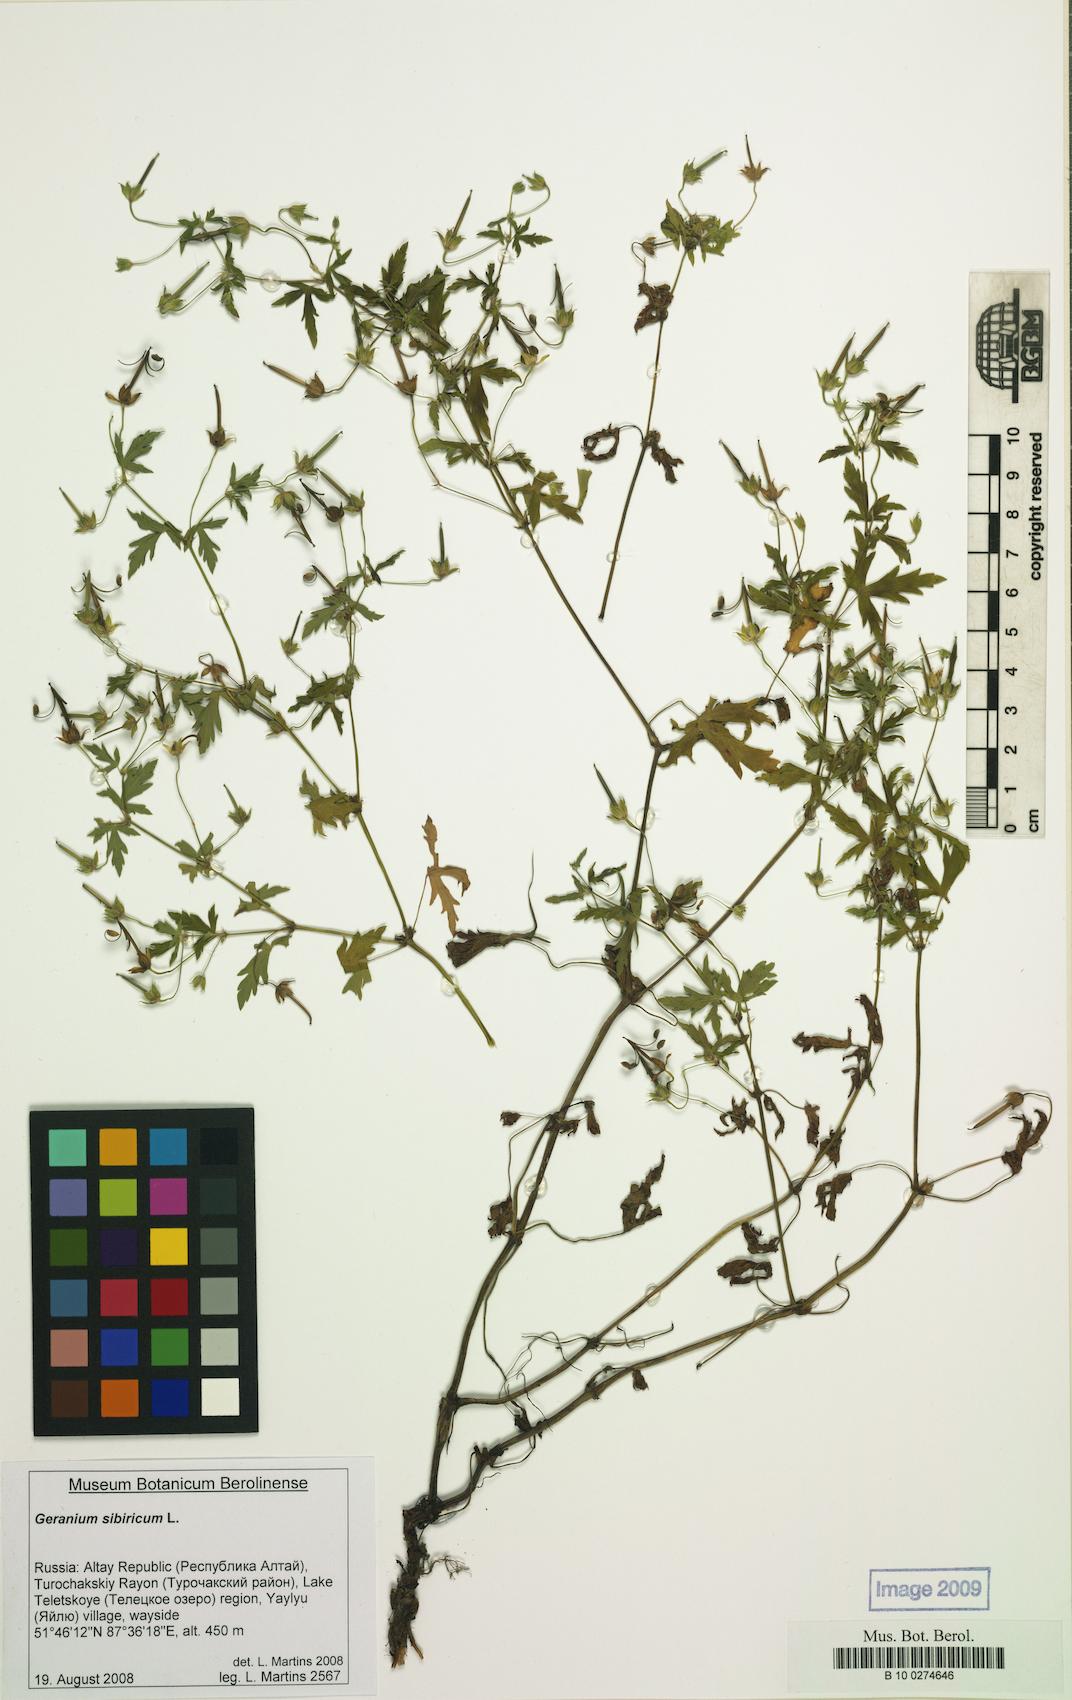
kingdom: Plantae
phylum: Tracheophyta
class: Magnoliopsida
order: Geraniales
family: Geraniaceae
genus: Geranium
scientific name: Geranium sibiricum
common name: Siberian crane's-bill
